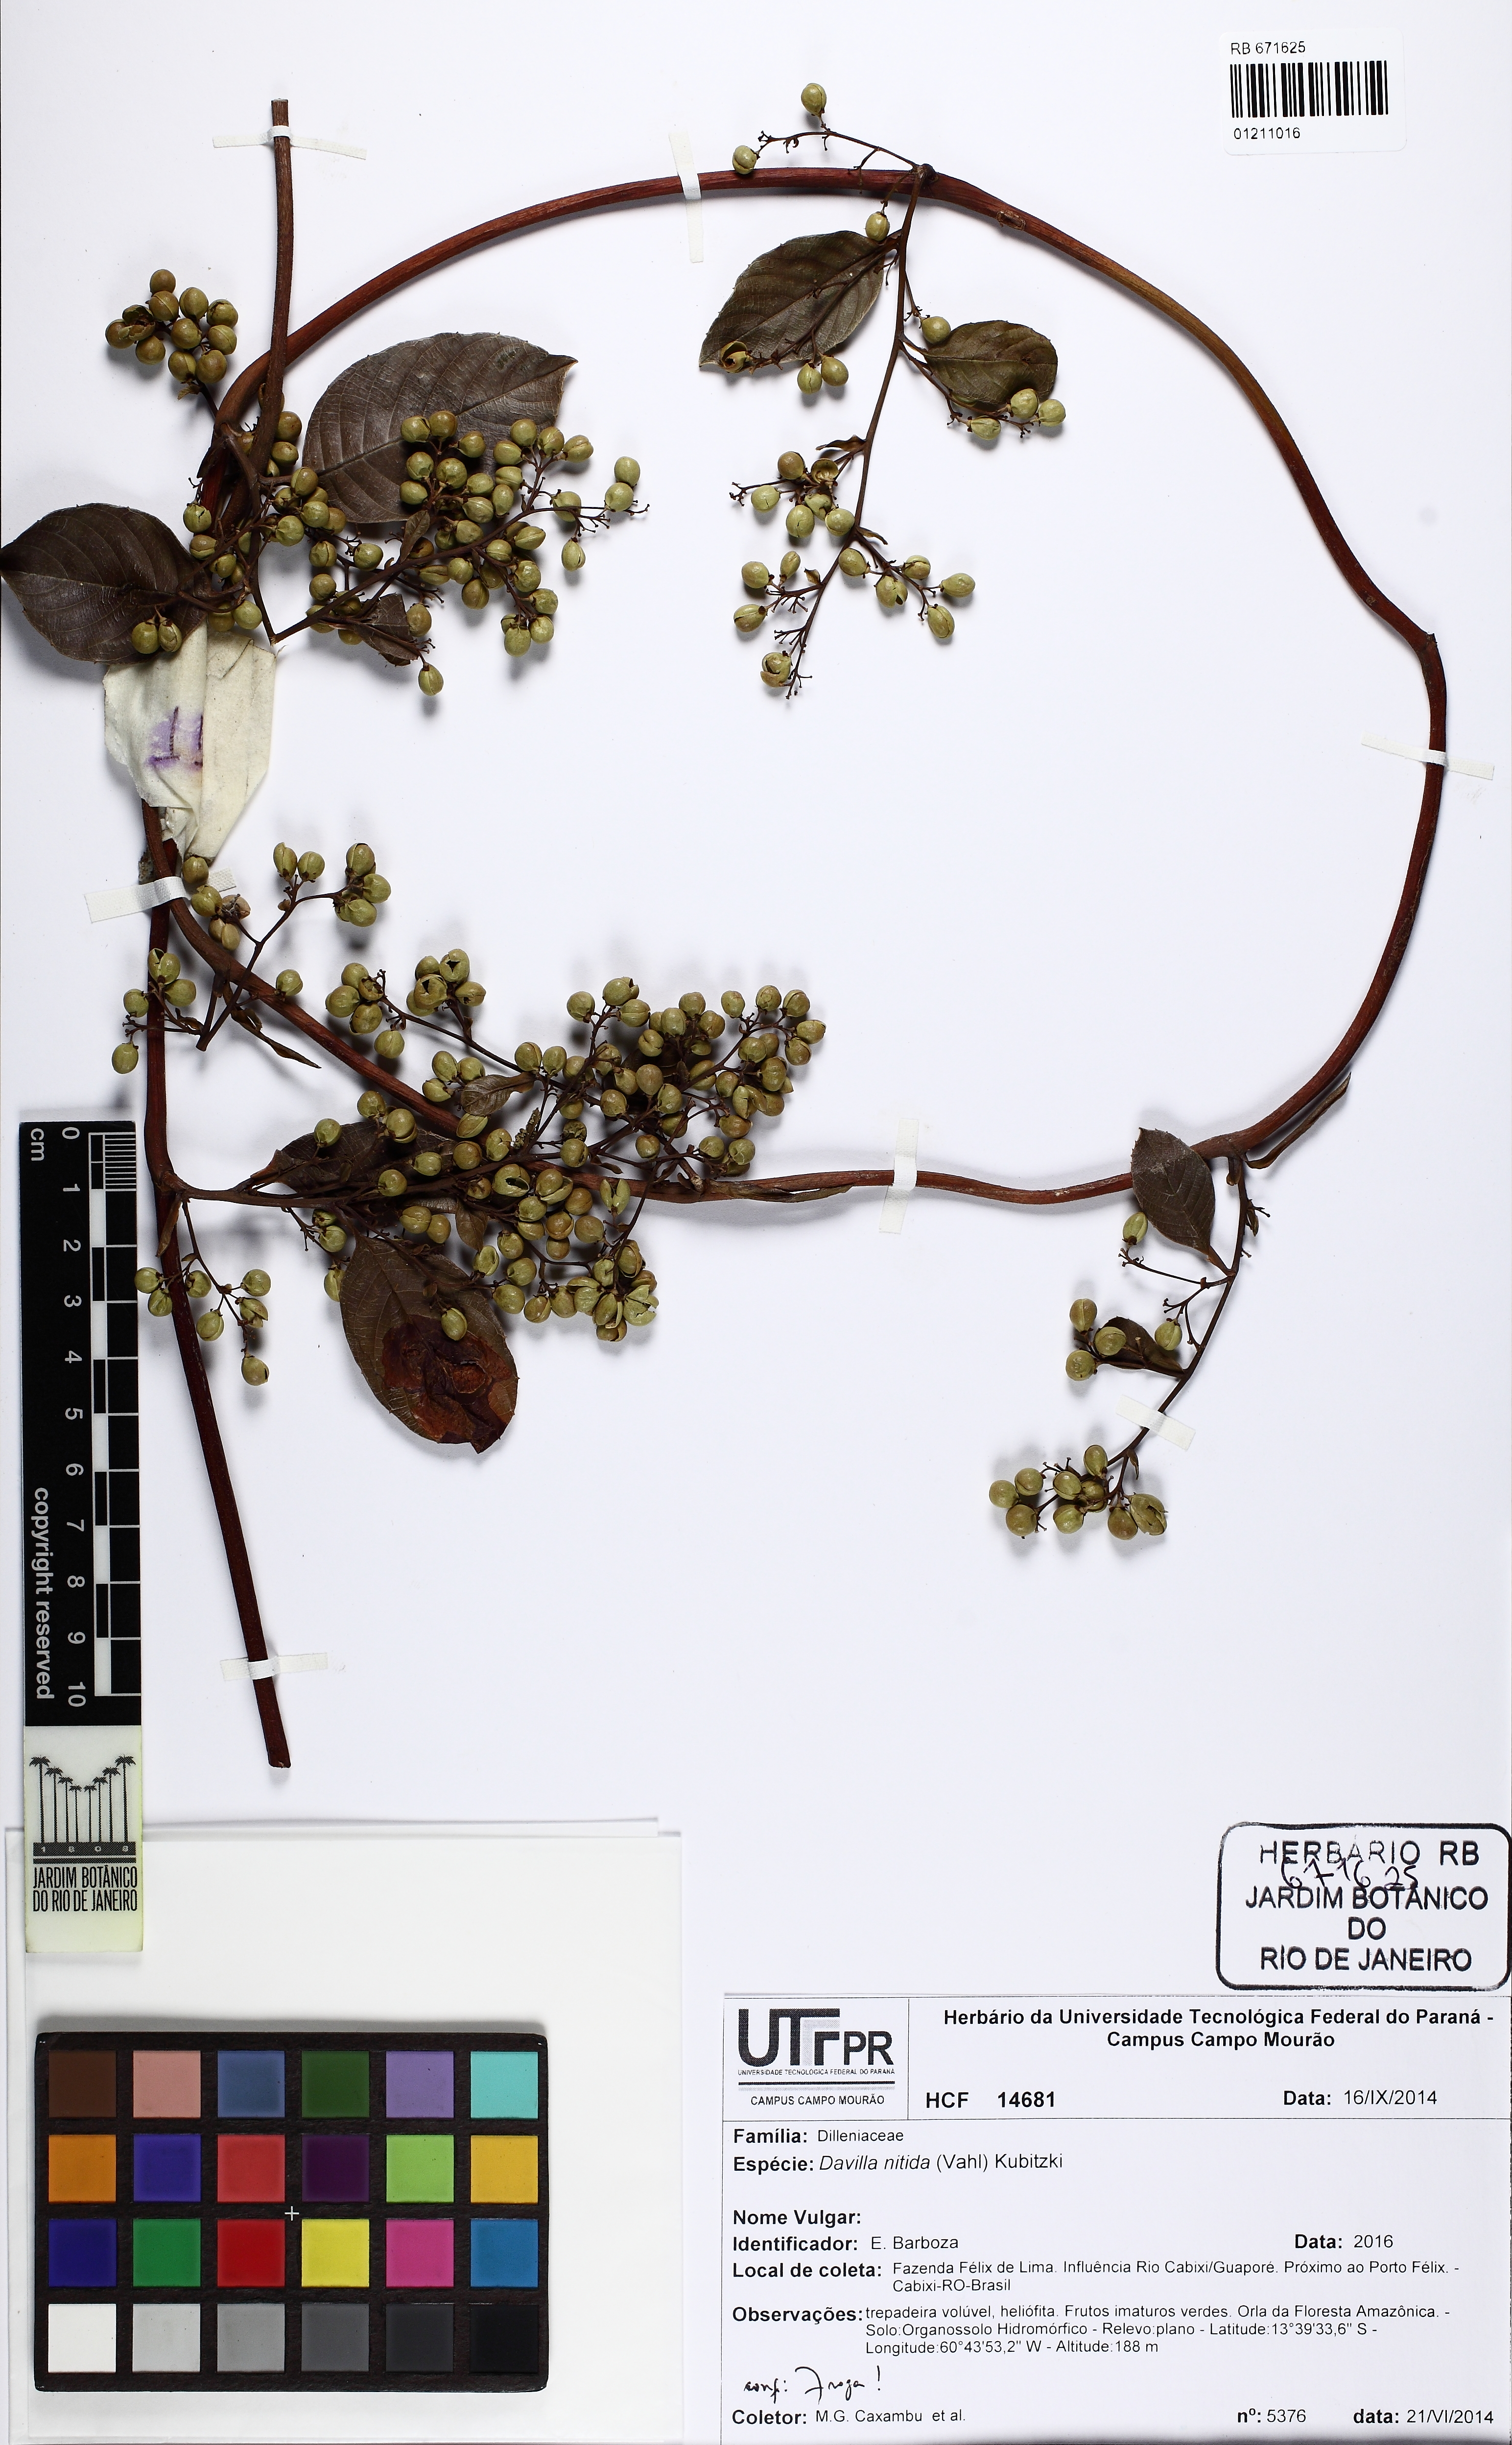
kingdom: Plantae
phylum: Tracheophyta
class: Magnoliopsida
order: Dilleniales
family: Dilleniaceae
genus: Davilla
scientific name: Davilla nitida
